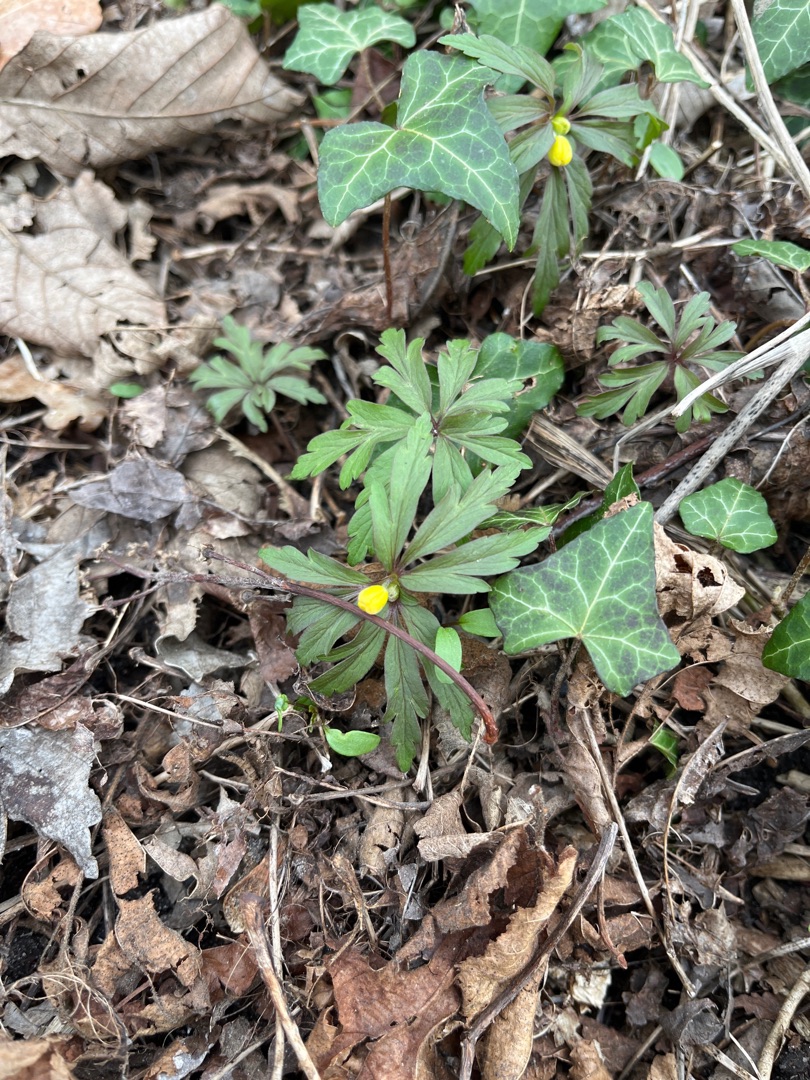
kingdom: Plantae
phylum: Tracheophyta
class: Magnoliopsida
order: Ranunculales
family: Ranunculaceae
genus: Anemone
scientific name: Anemone ranunculoides
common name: Gul anemone
